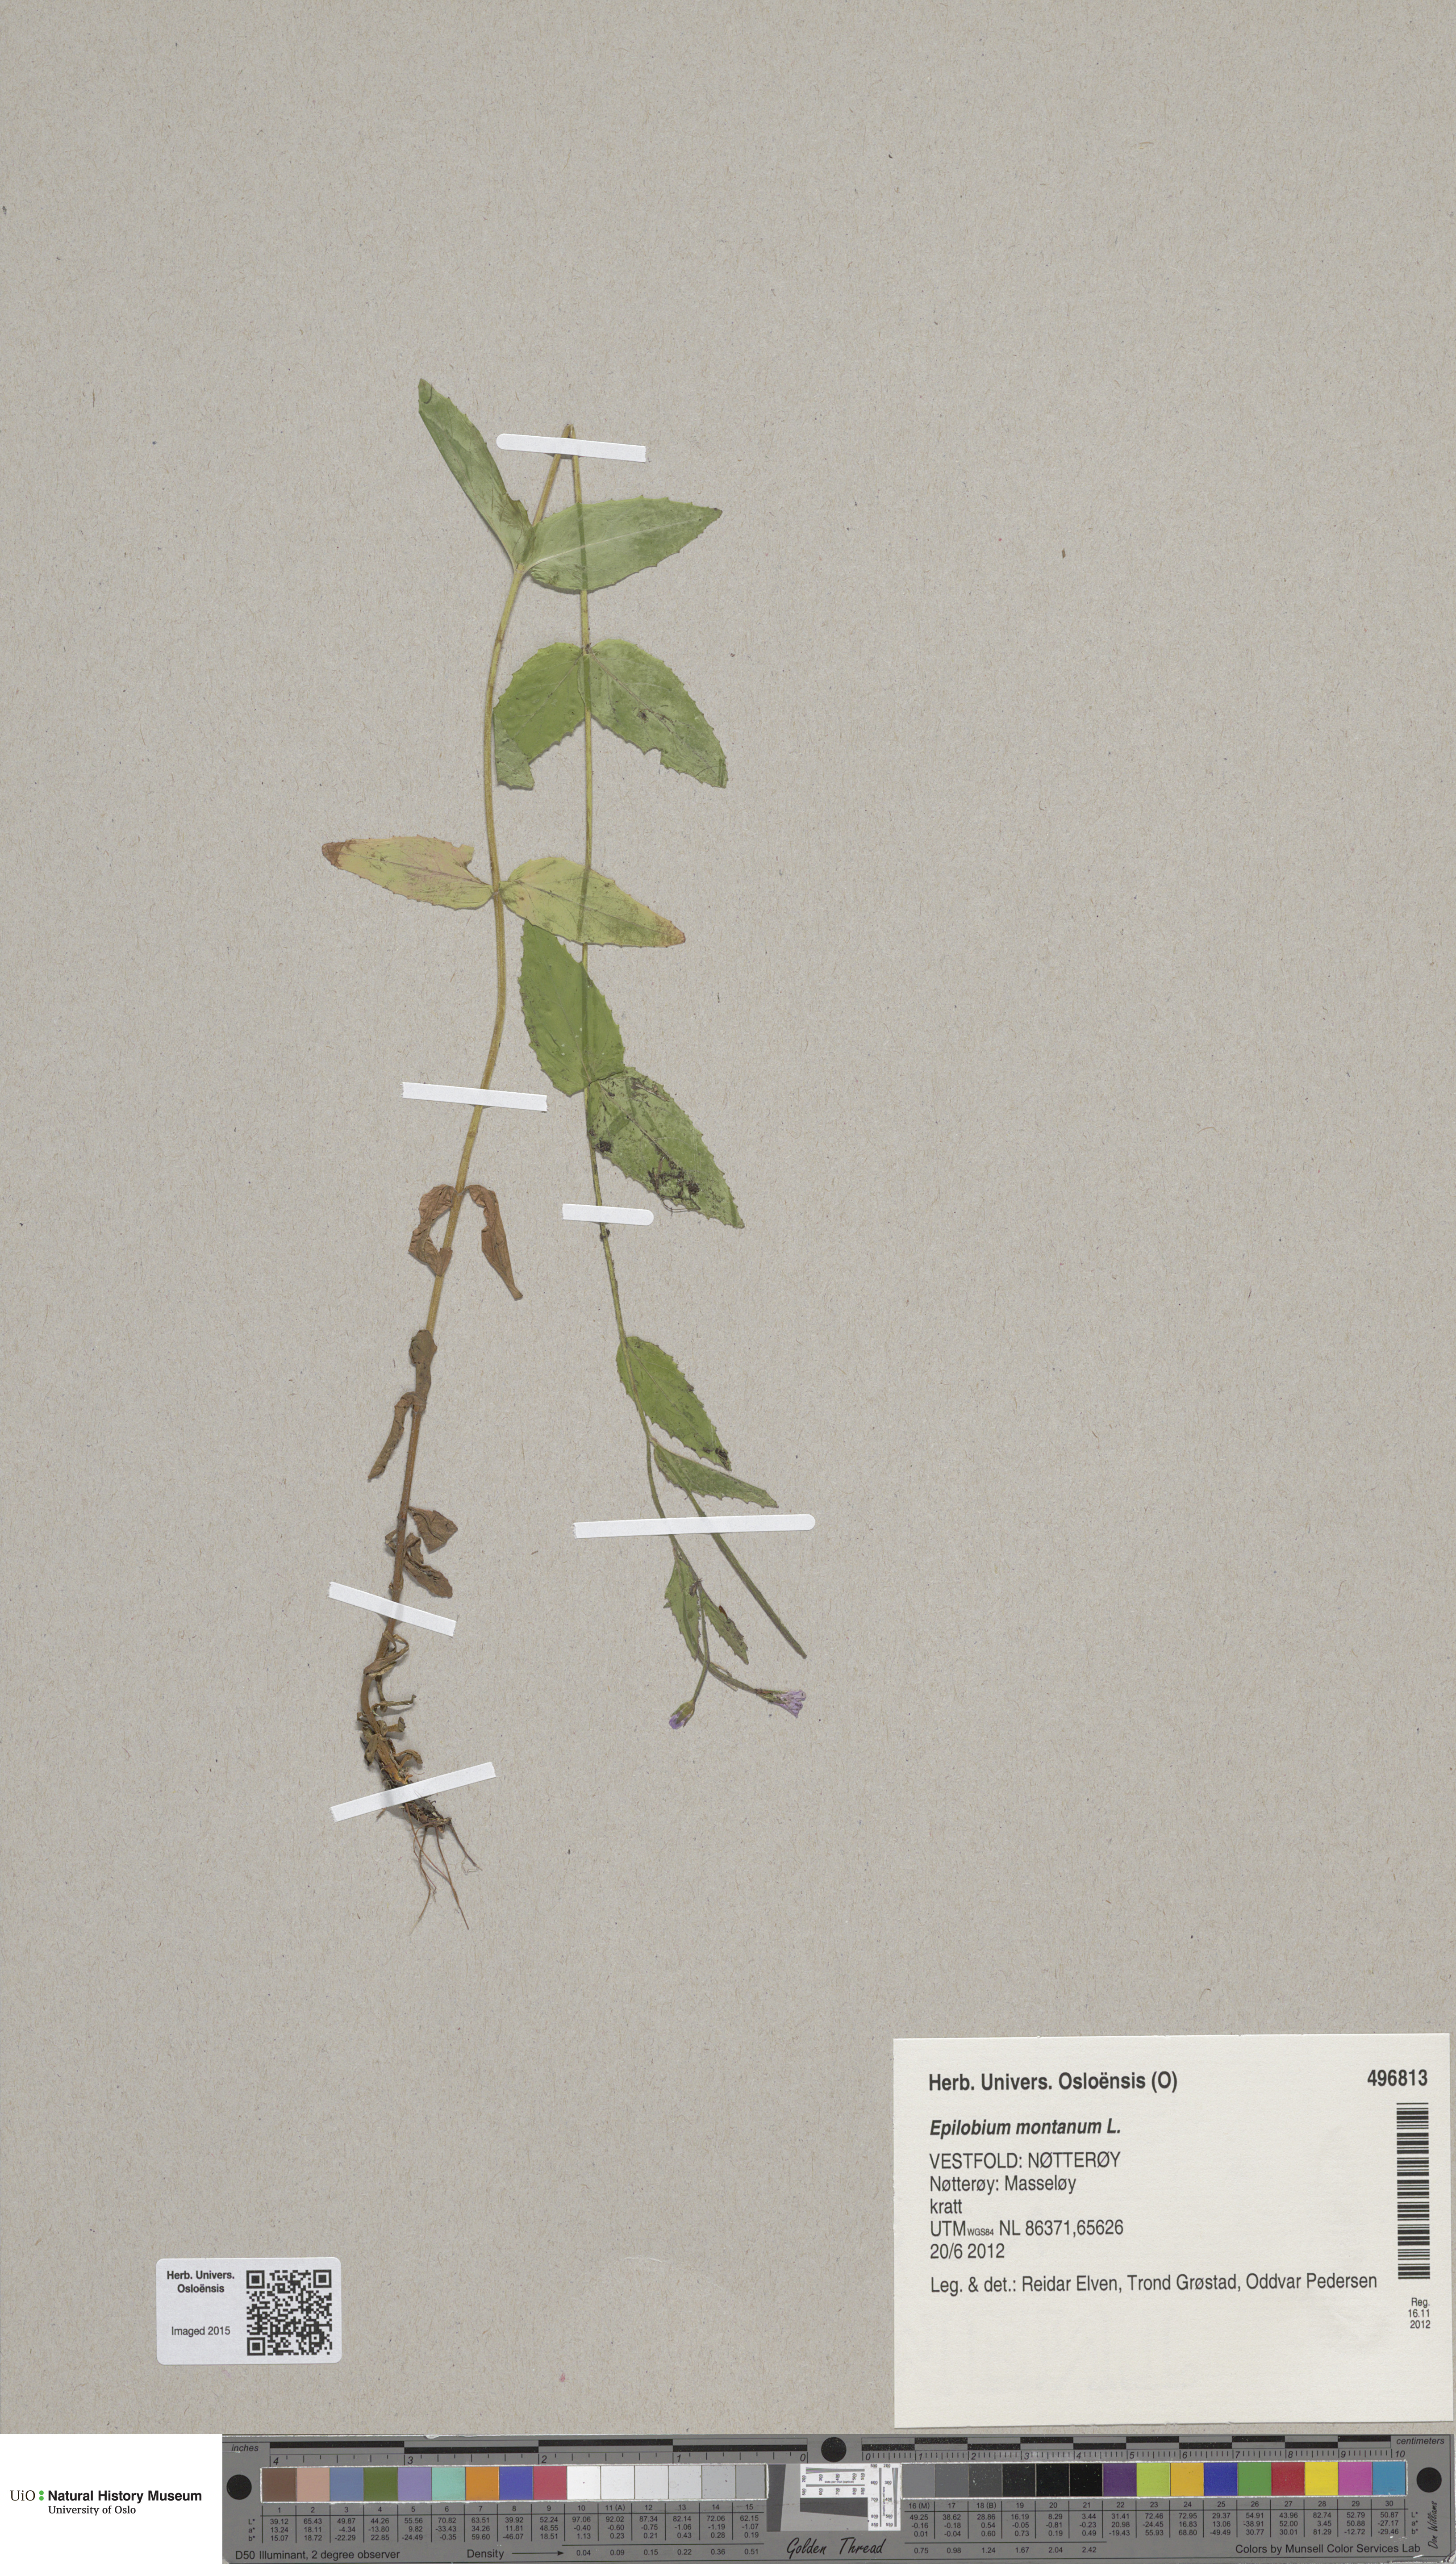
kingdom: Plantae
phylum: Tracheophyta
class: Magnoliopsida
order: Myrtales
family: Onagraceae
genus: Epilobium
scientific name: Epilobium montanum
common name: Broad-leaved willowherb
